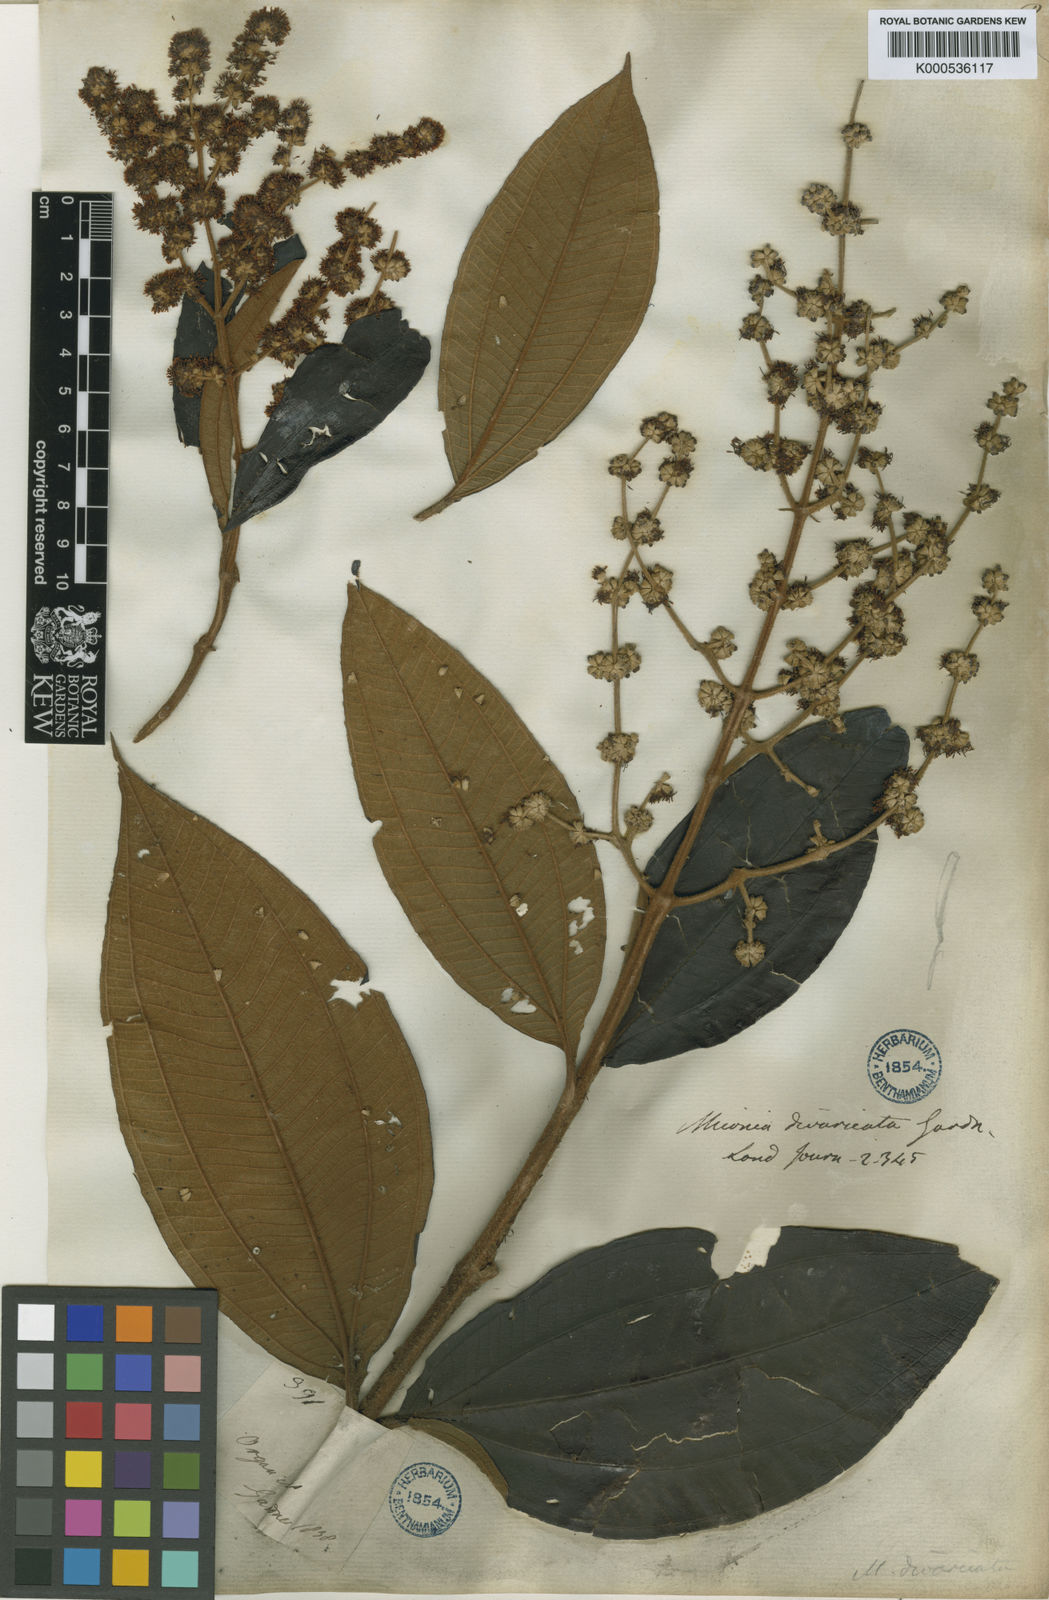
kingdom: Plantae
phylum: Tracheophyta
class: Magnoliopsida
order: Myrtales
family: Melastomataceae
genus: Miconia
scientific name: Miconia fasciculata
